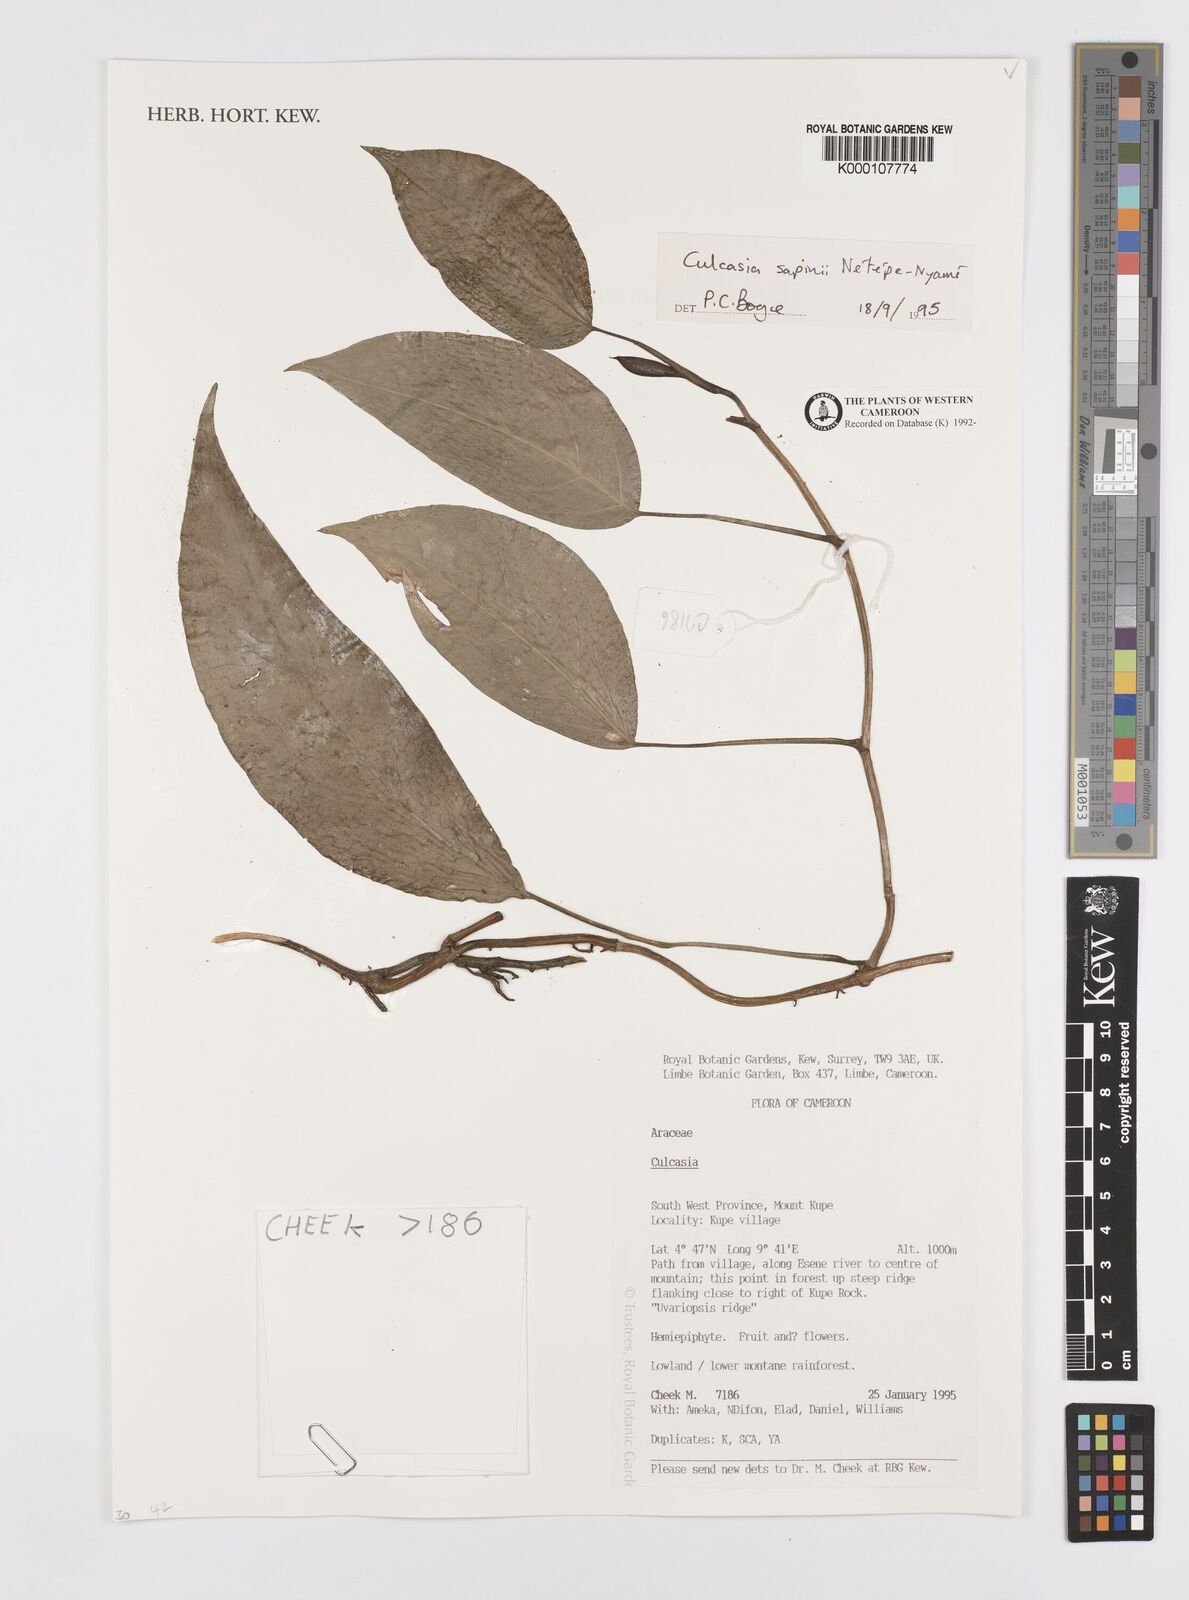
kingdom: Plantae
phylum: Tracheophyta
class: Liliopsida
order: Alismatales
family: Araceae
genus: Culcasia
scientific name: Culcasia seretii
